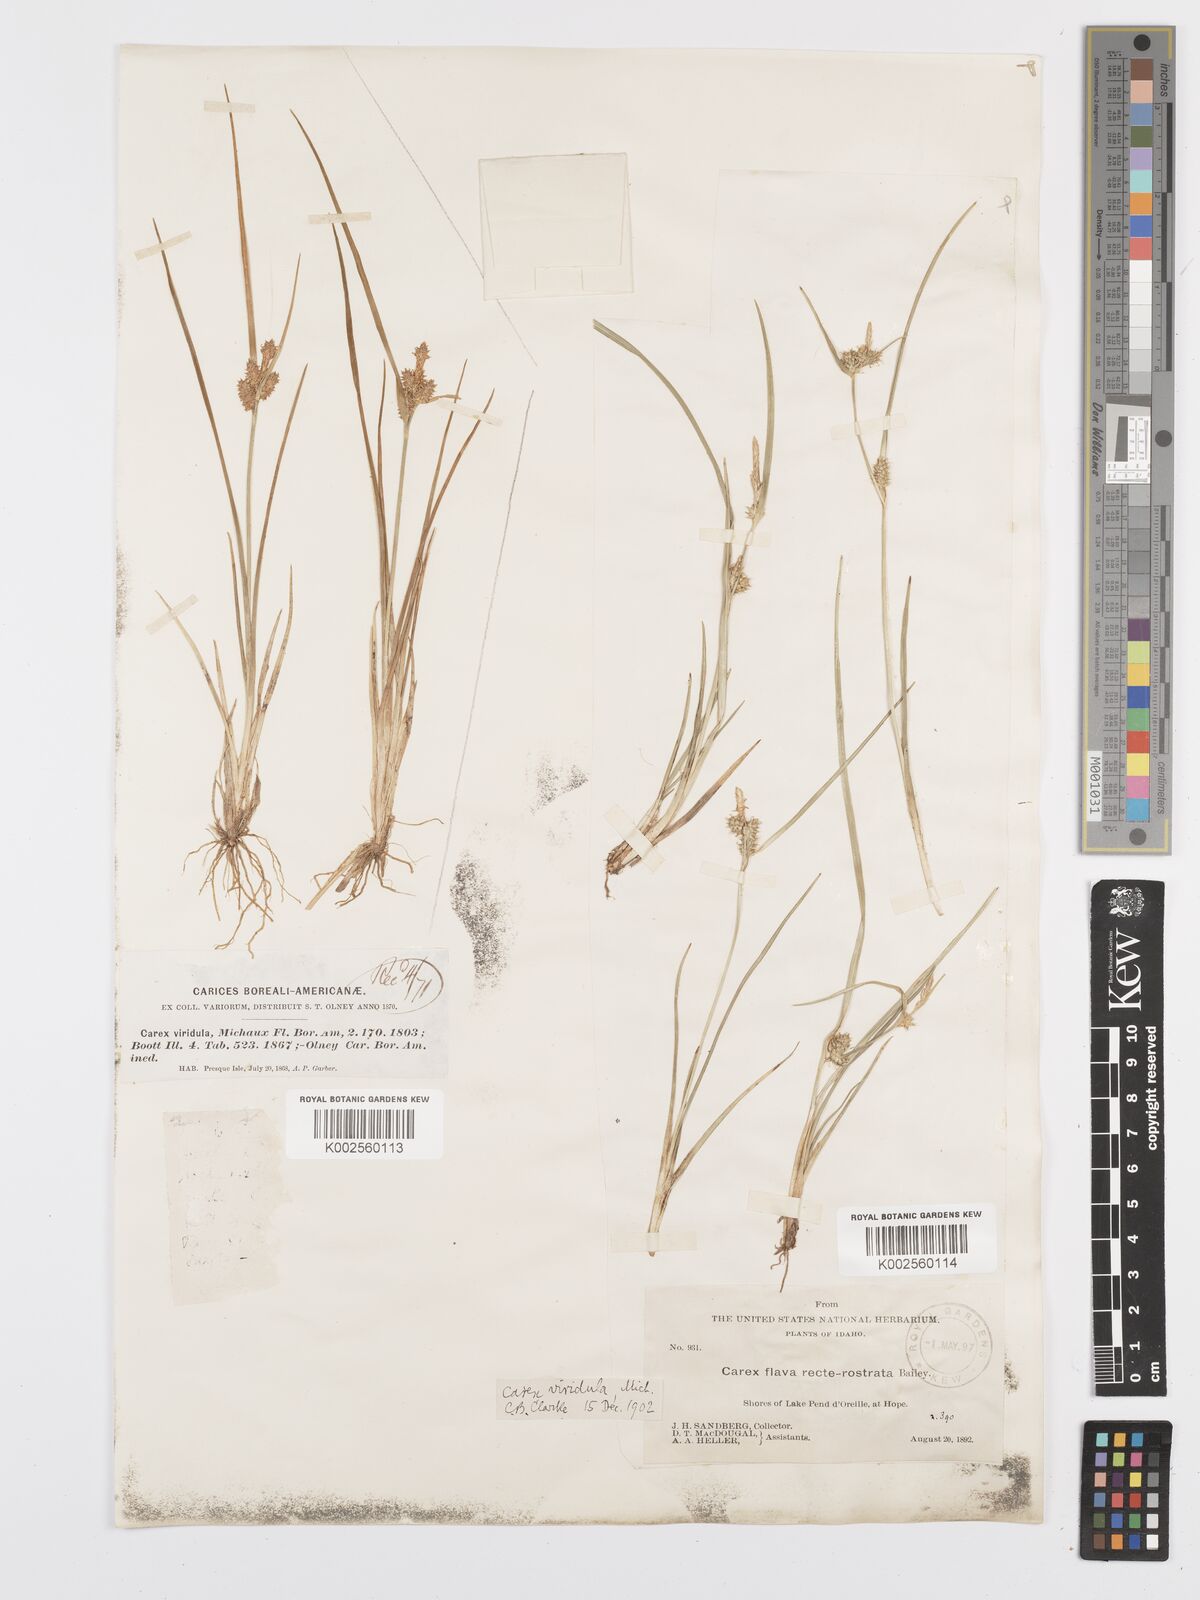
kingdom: Plantae
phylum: Tracheophyta
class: Liliopsida
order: Poales
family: Cyperaceae
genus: Carex
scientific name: Carex oederi
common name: Common & small-fruited yellow-sedge
